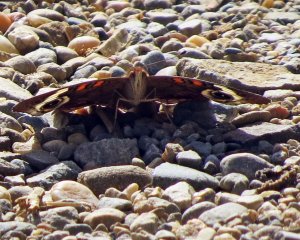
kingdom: Animalia
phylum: Arthropoda
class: Insecta
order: Lepidoptera
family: Nymphalidae
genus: Junonia
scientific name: Junonia coenia
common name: Common Buckeye
